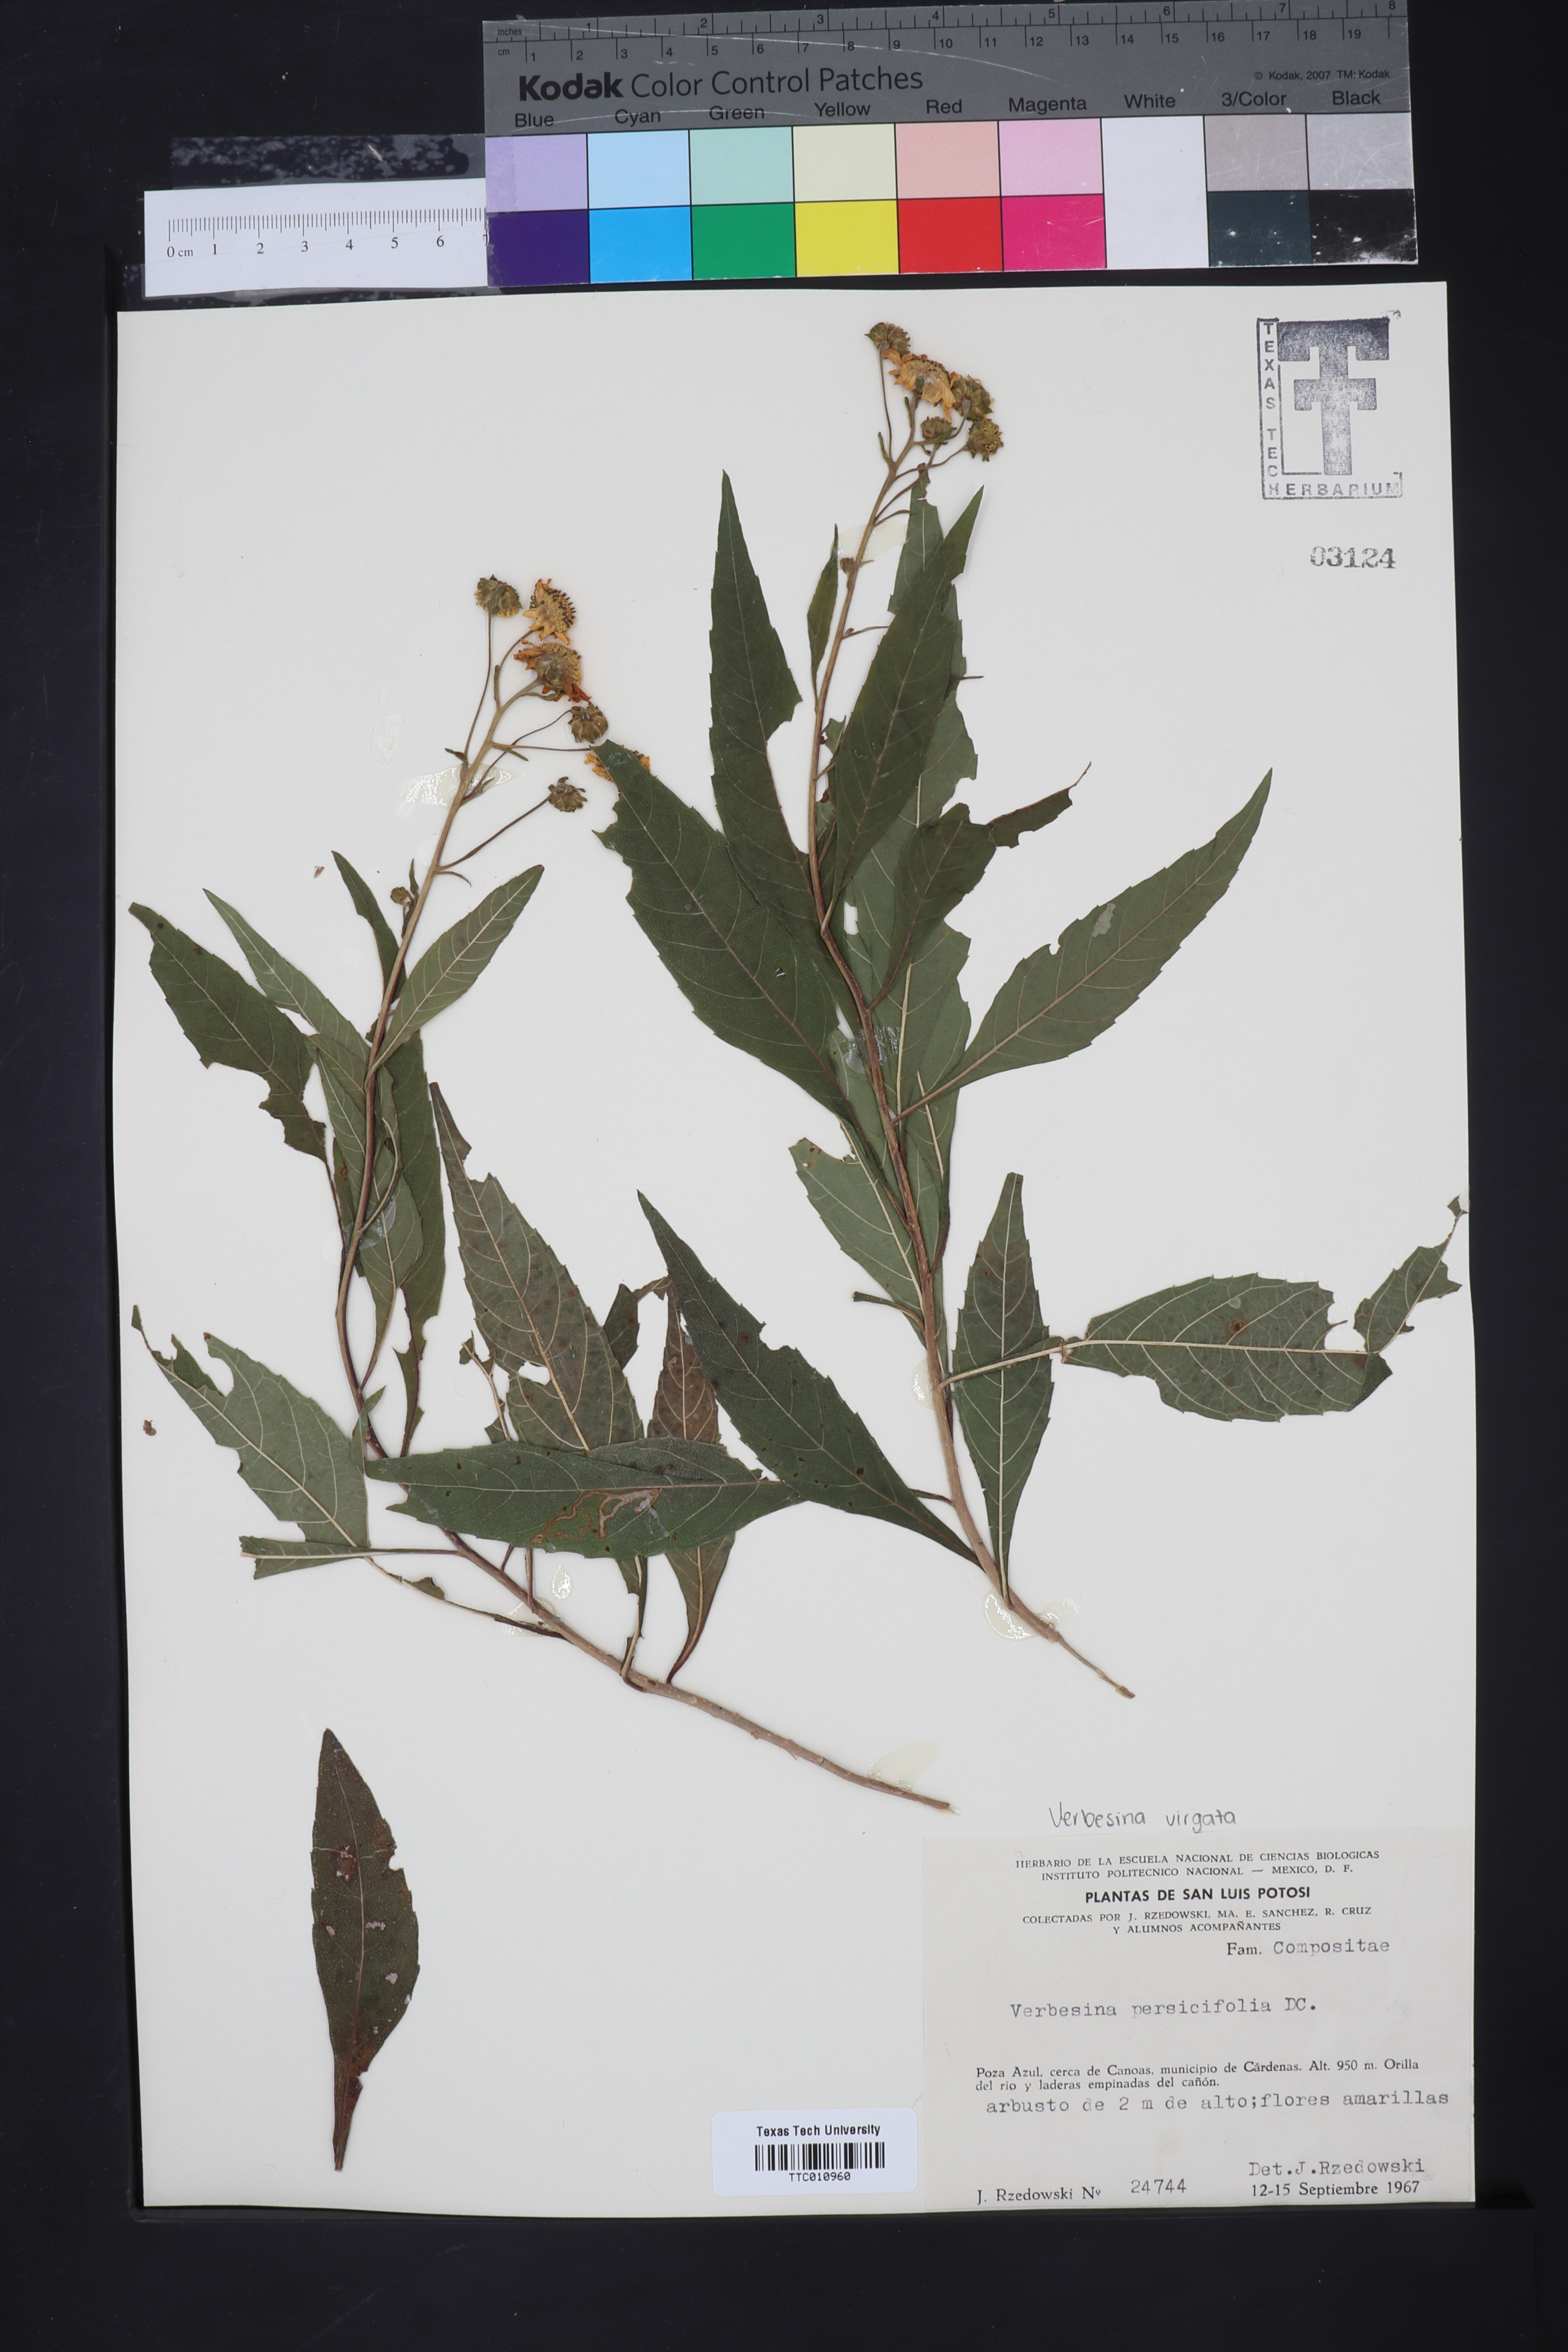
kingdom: Plantae
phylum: Tracheophyta
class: Magnoliopsida
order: Asterales
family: Asteraceae
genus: Verbesina
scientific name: Verbesina persicifolia
